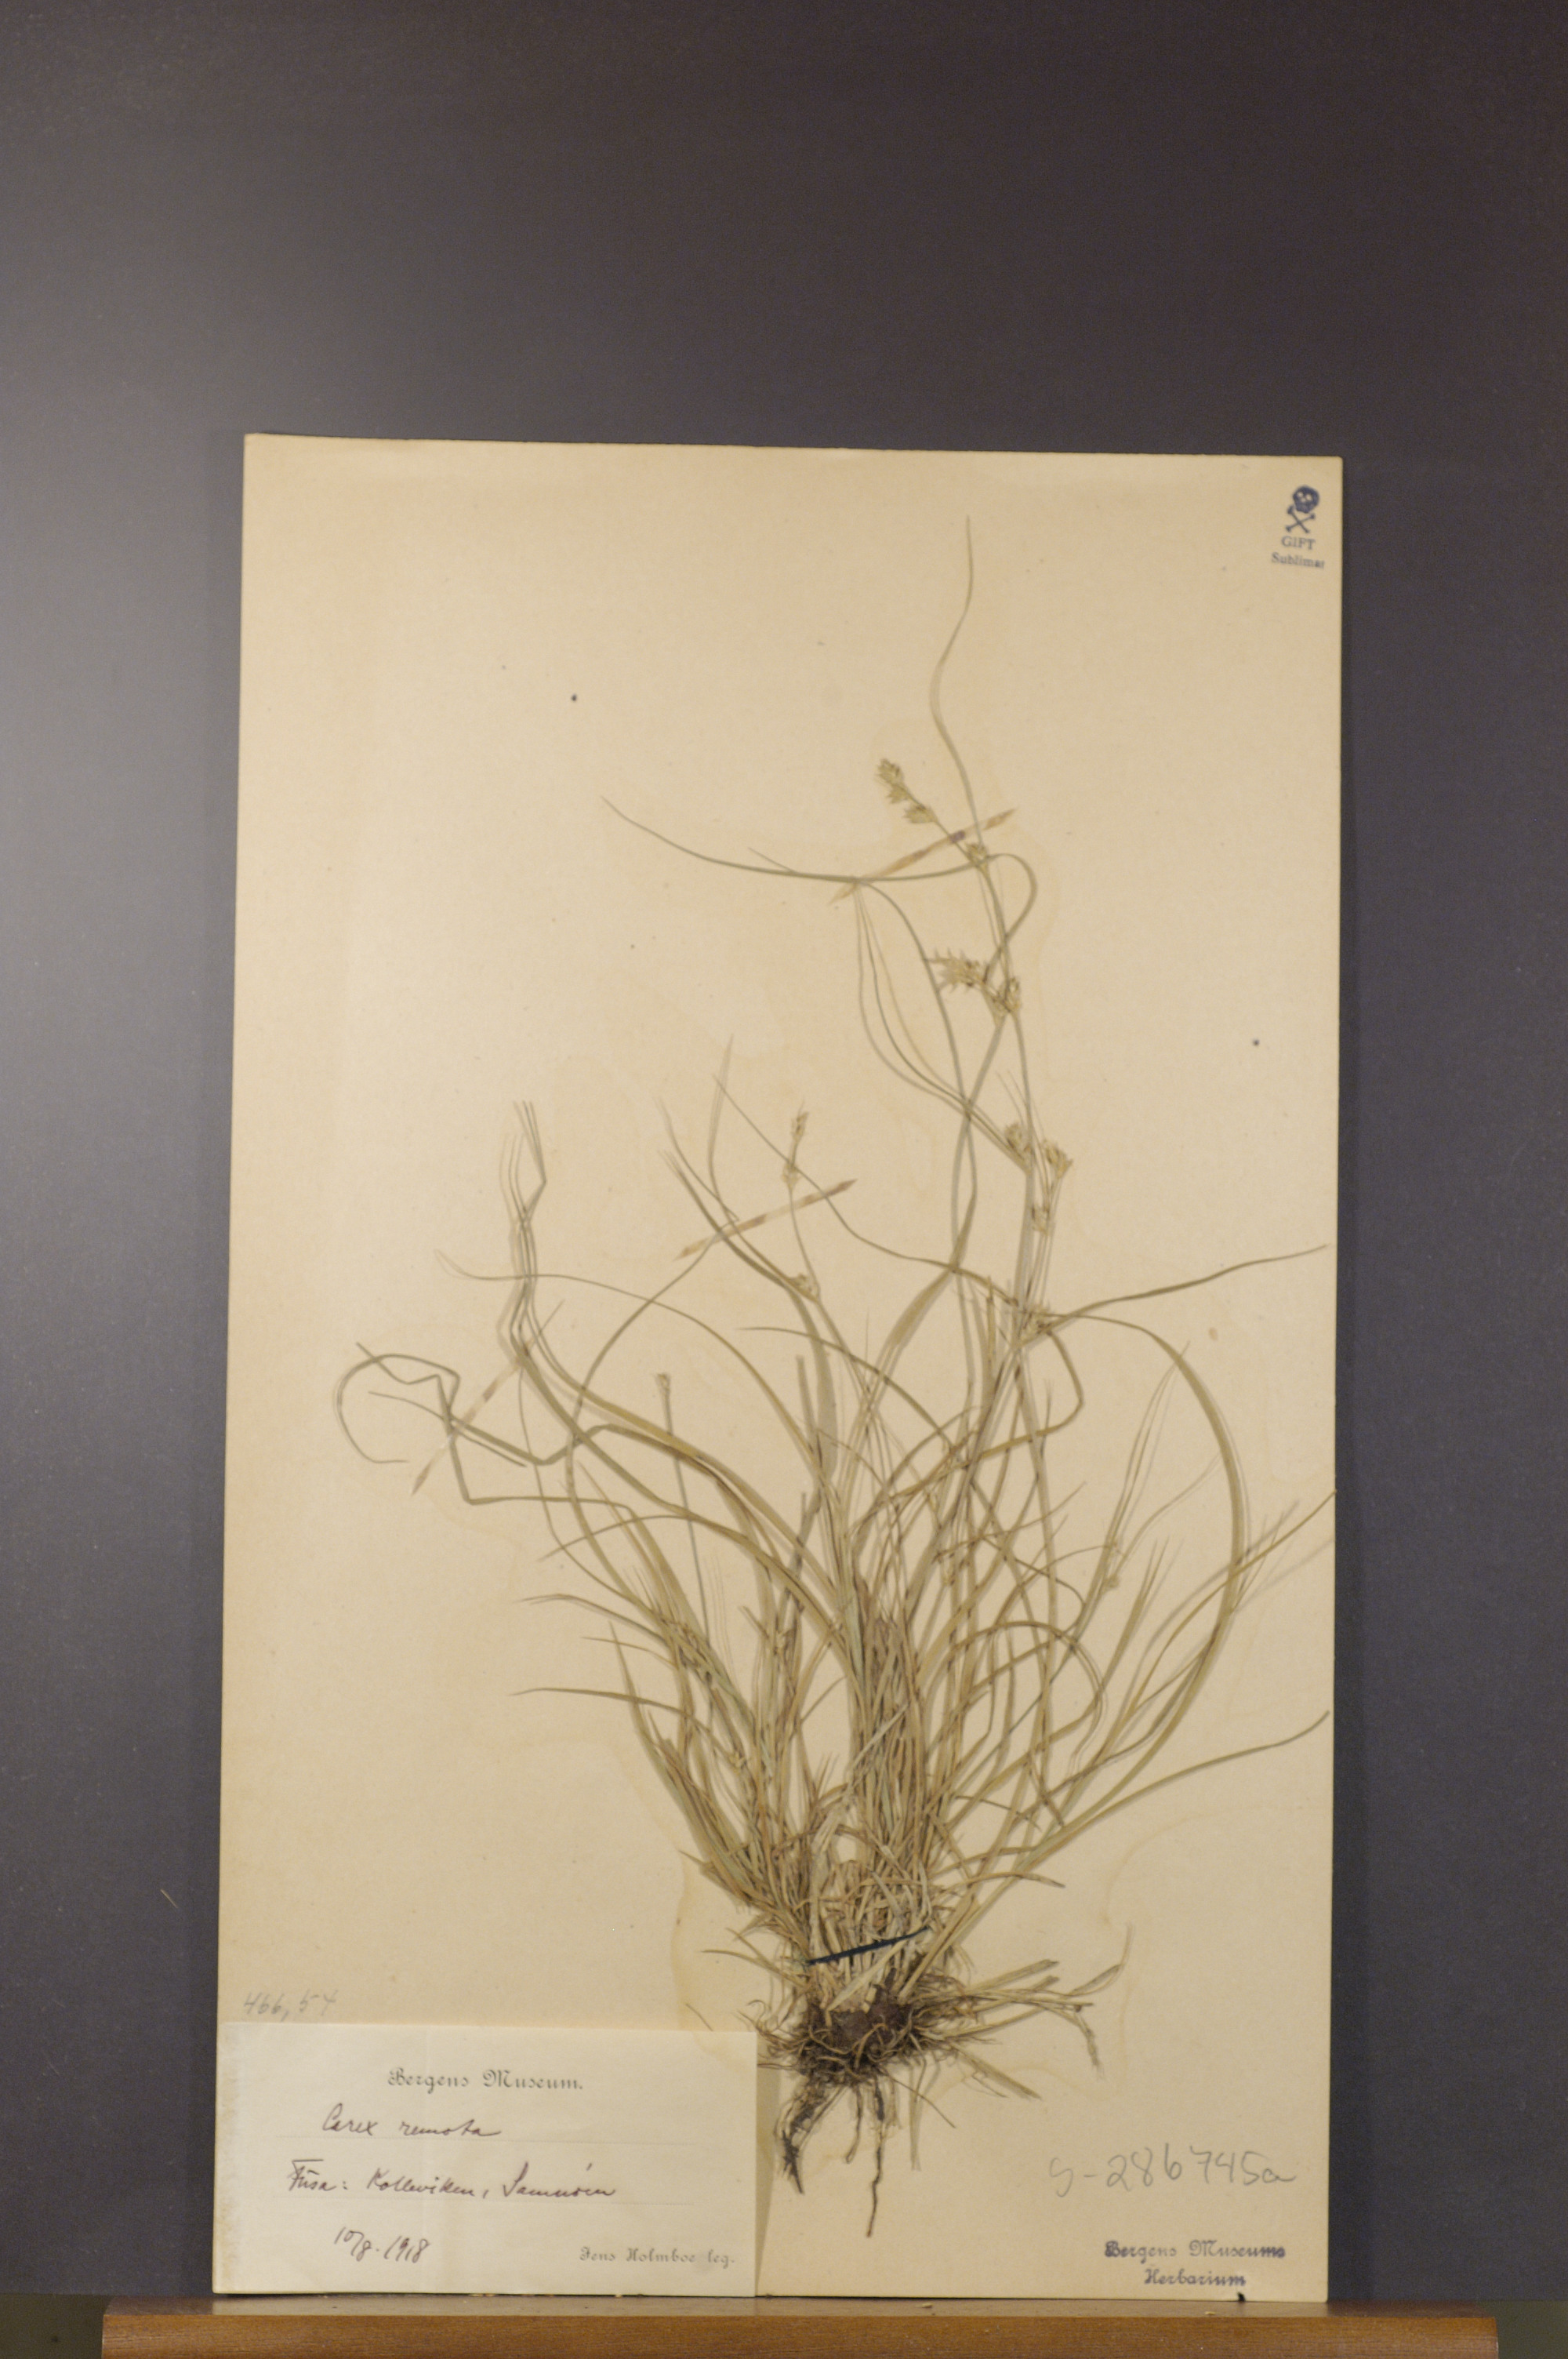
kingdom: Plantae
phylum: Tracheophyta
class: Liliopsida
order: Poales
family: Cyperaceae
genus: Carex
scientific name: Carex remota
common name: Remote sedge
